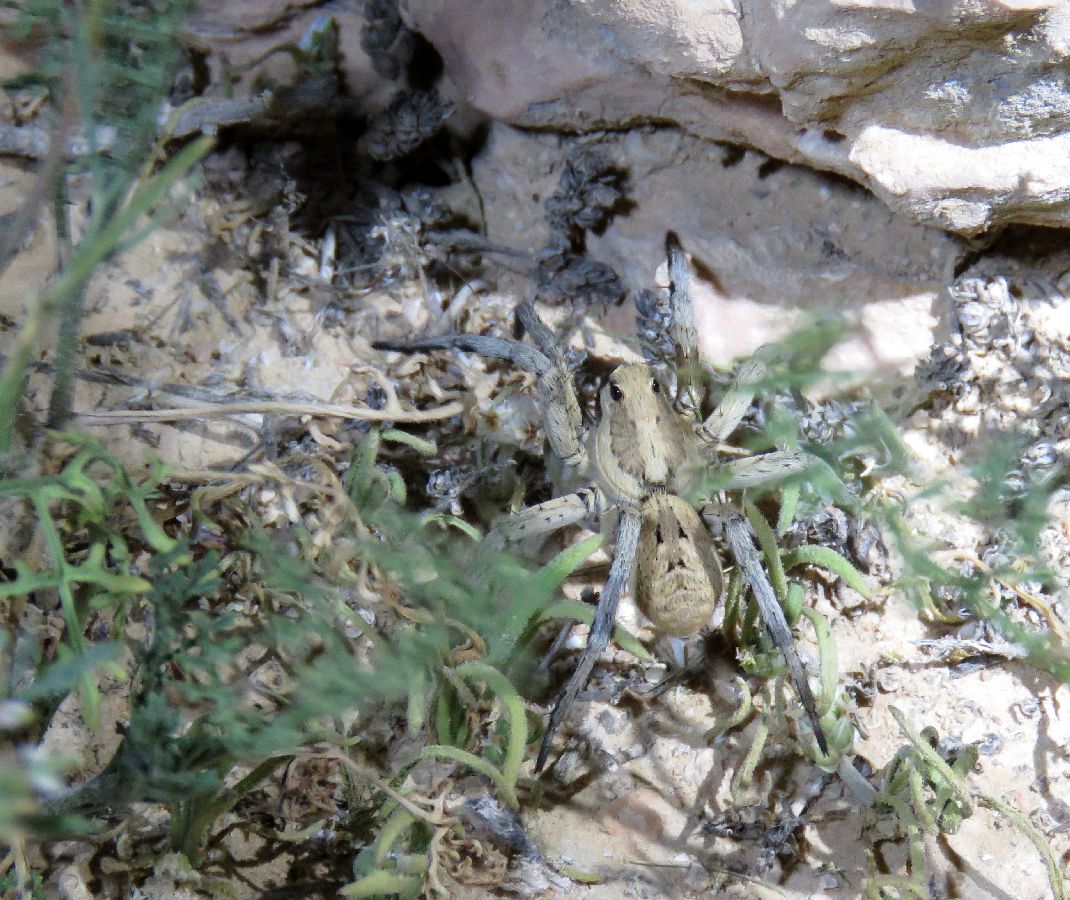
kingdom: Animalia
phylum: Arthropoda
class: Arachnida
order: Araneae
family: Lycosidae
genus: Lycosa
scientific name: Lycosa piochardi
